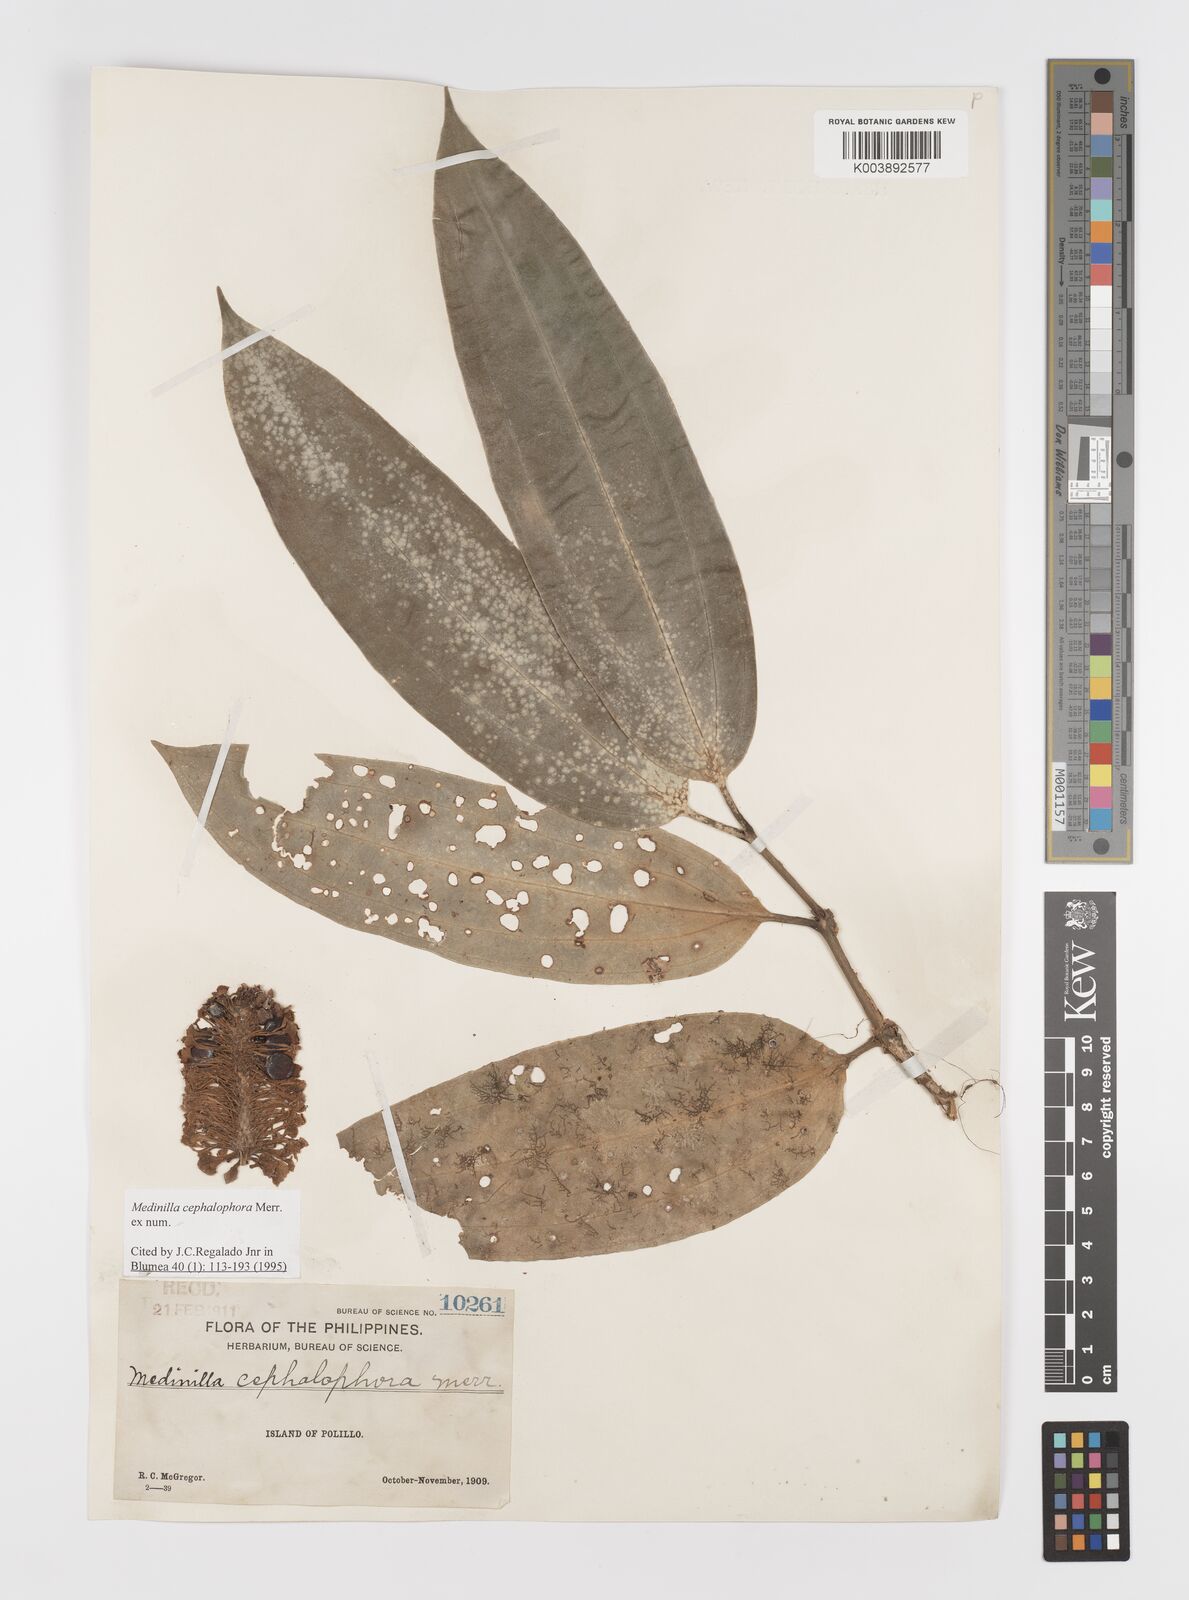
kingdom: Plantae
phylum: Tracheophyta
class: Magnoliopsida
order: Myrtales
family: Melastomataceae
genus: Medinilla
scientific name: Medinilla cephalophora
